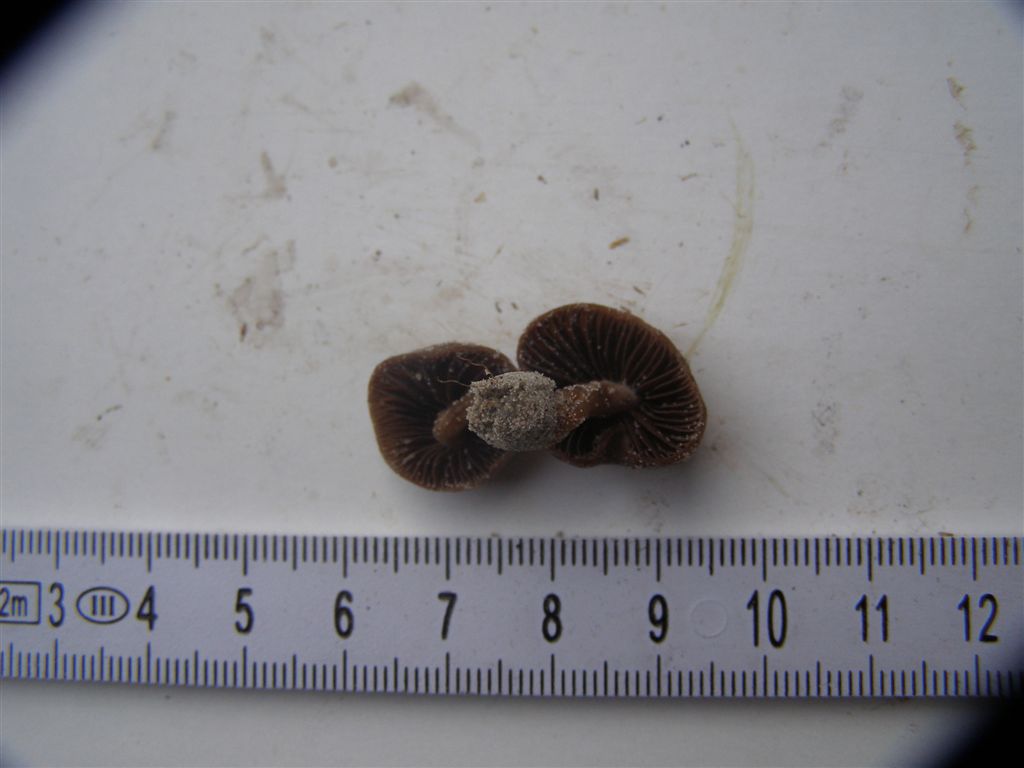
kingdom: Fungi
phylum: Basidiomycota
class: Agaricomycetes
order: Agaricales
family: Psathyrellaceae
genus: Psathyrella
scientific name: Psathyrella ammophila
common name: klit-mørkhat
